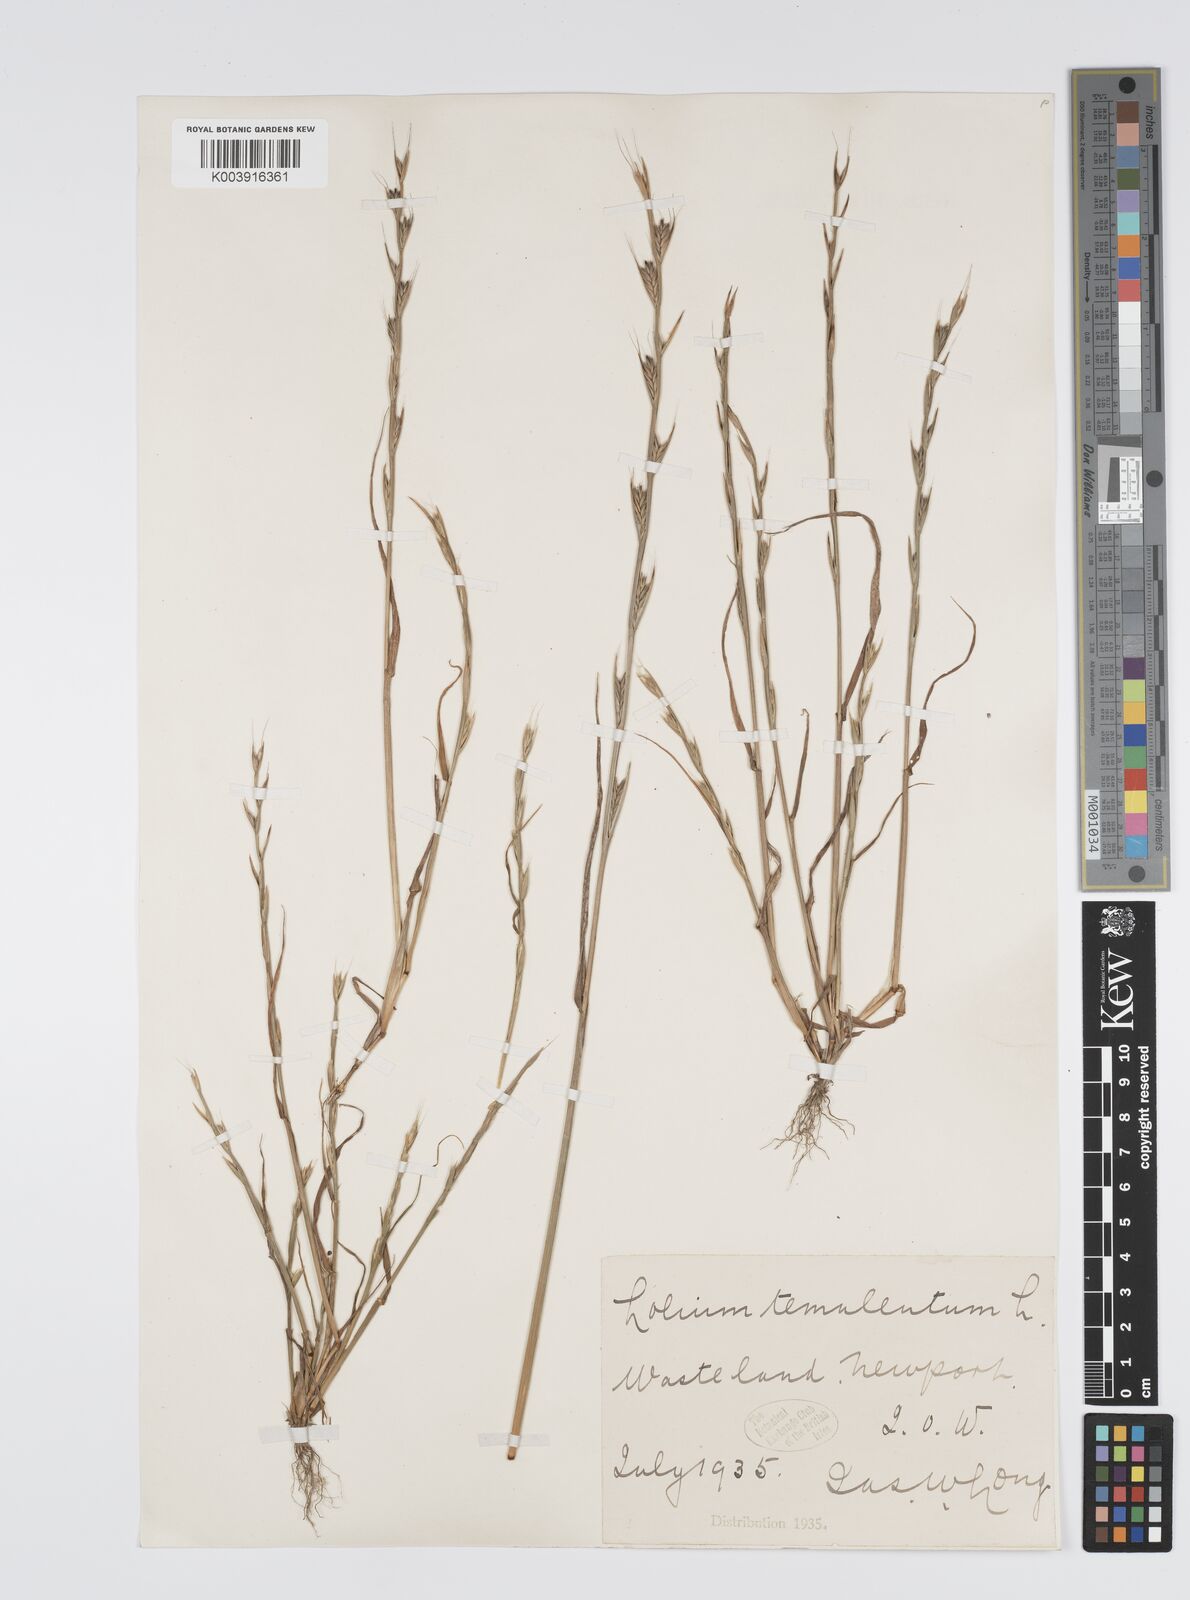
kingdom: Plantae
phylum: Tracheophyta
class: Liliopsida
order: Poales
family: Poaceae
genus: Lolium
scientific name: Lolium temulentum
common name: Darnel
